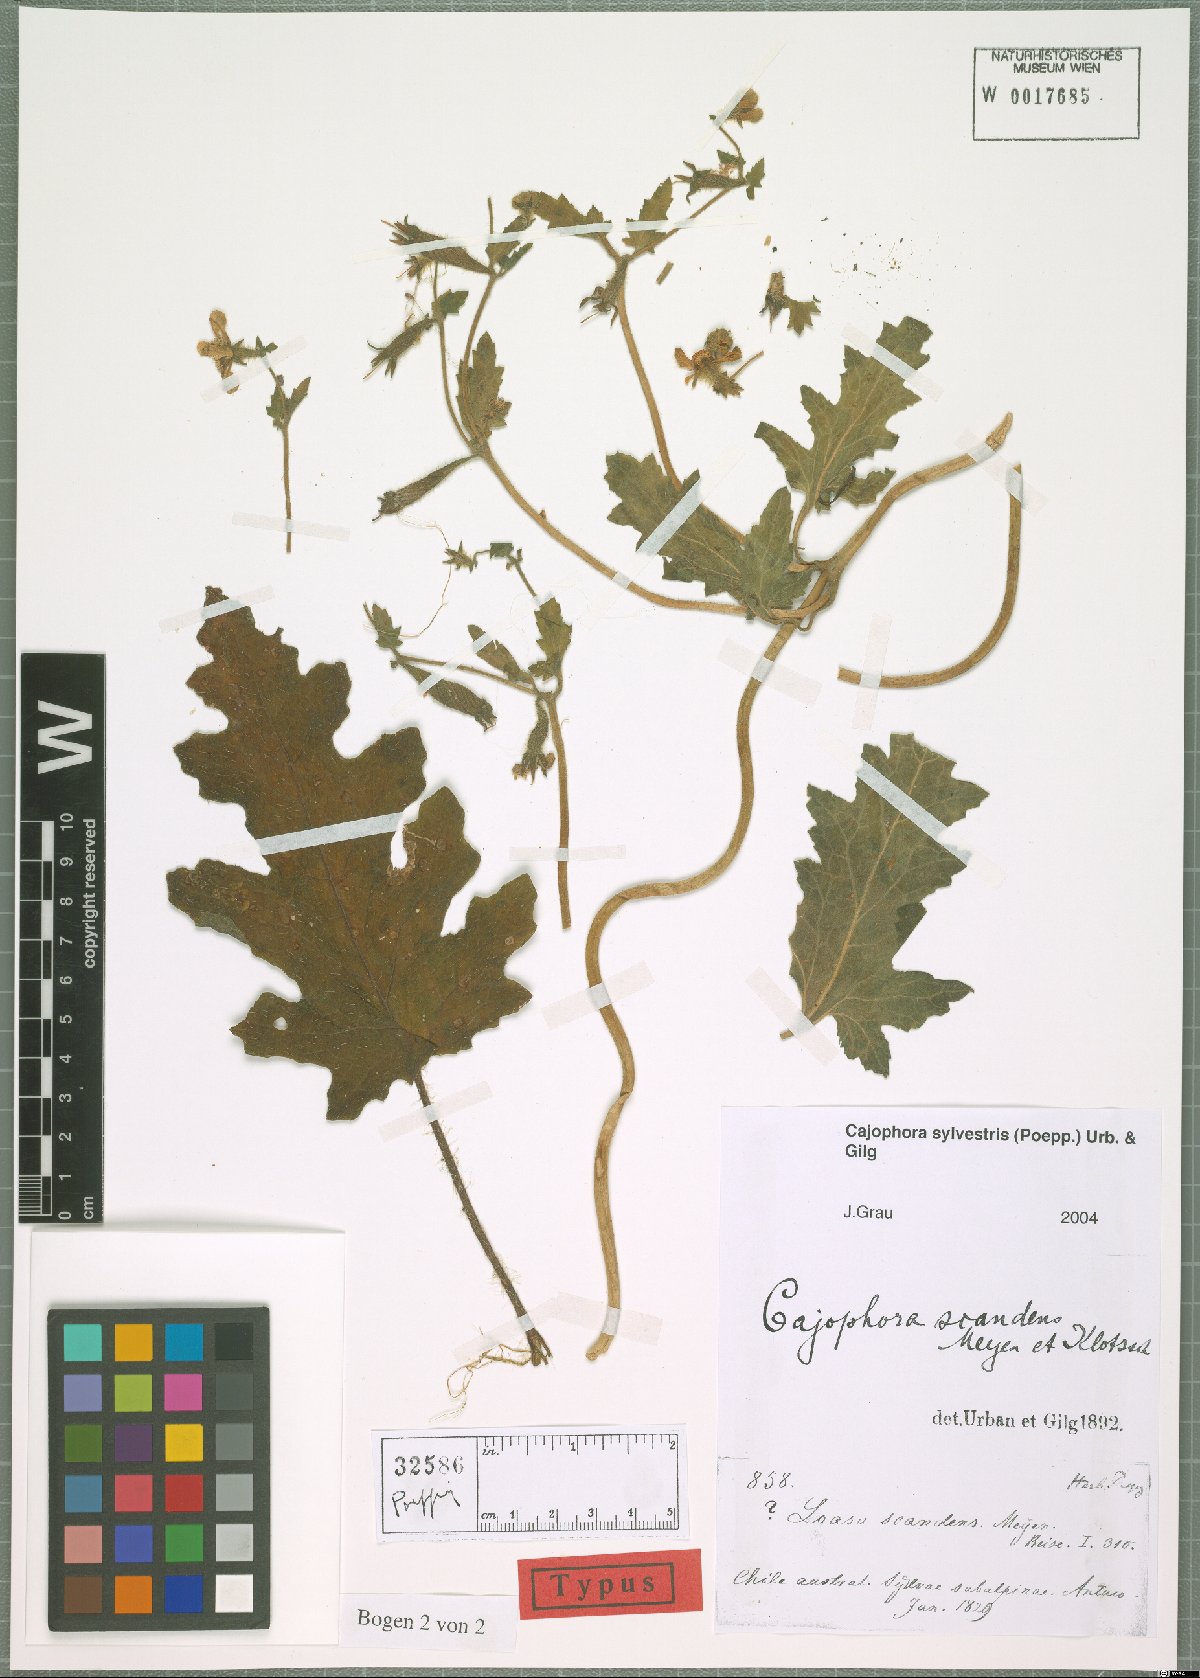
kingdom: Plantae
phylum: Tracheophyta
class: Magnoliopsida
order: Cornales
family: Loasaceae
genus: Blumenbachia
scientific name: Blumenbachia sylvestris
